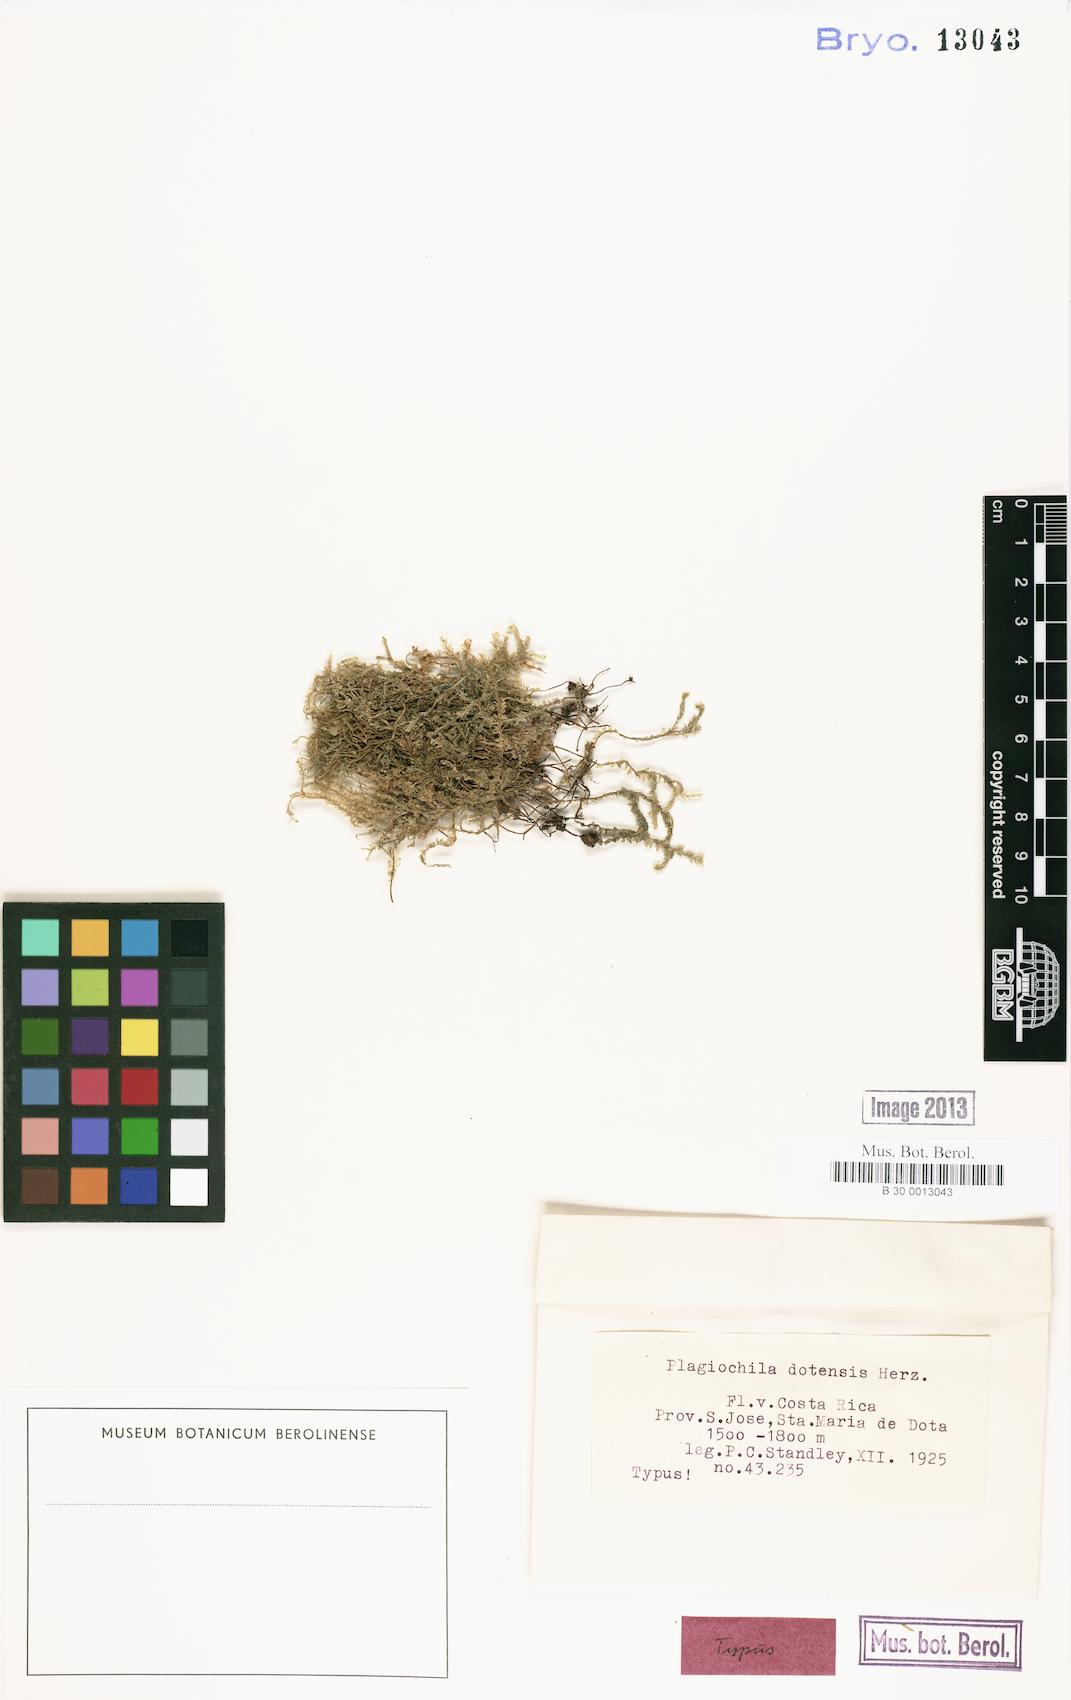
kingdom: Plantae
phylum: Marchantiophyta
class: Jungermanniopsida
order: Jungermanniales
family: Plagiochilaceae
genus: Plagiochila
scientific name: Plagiochila diversifolia
